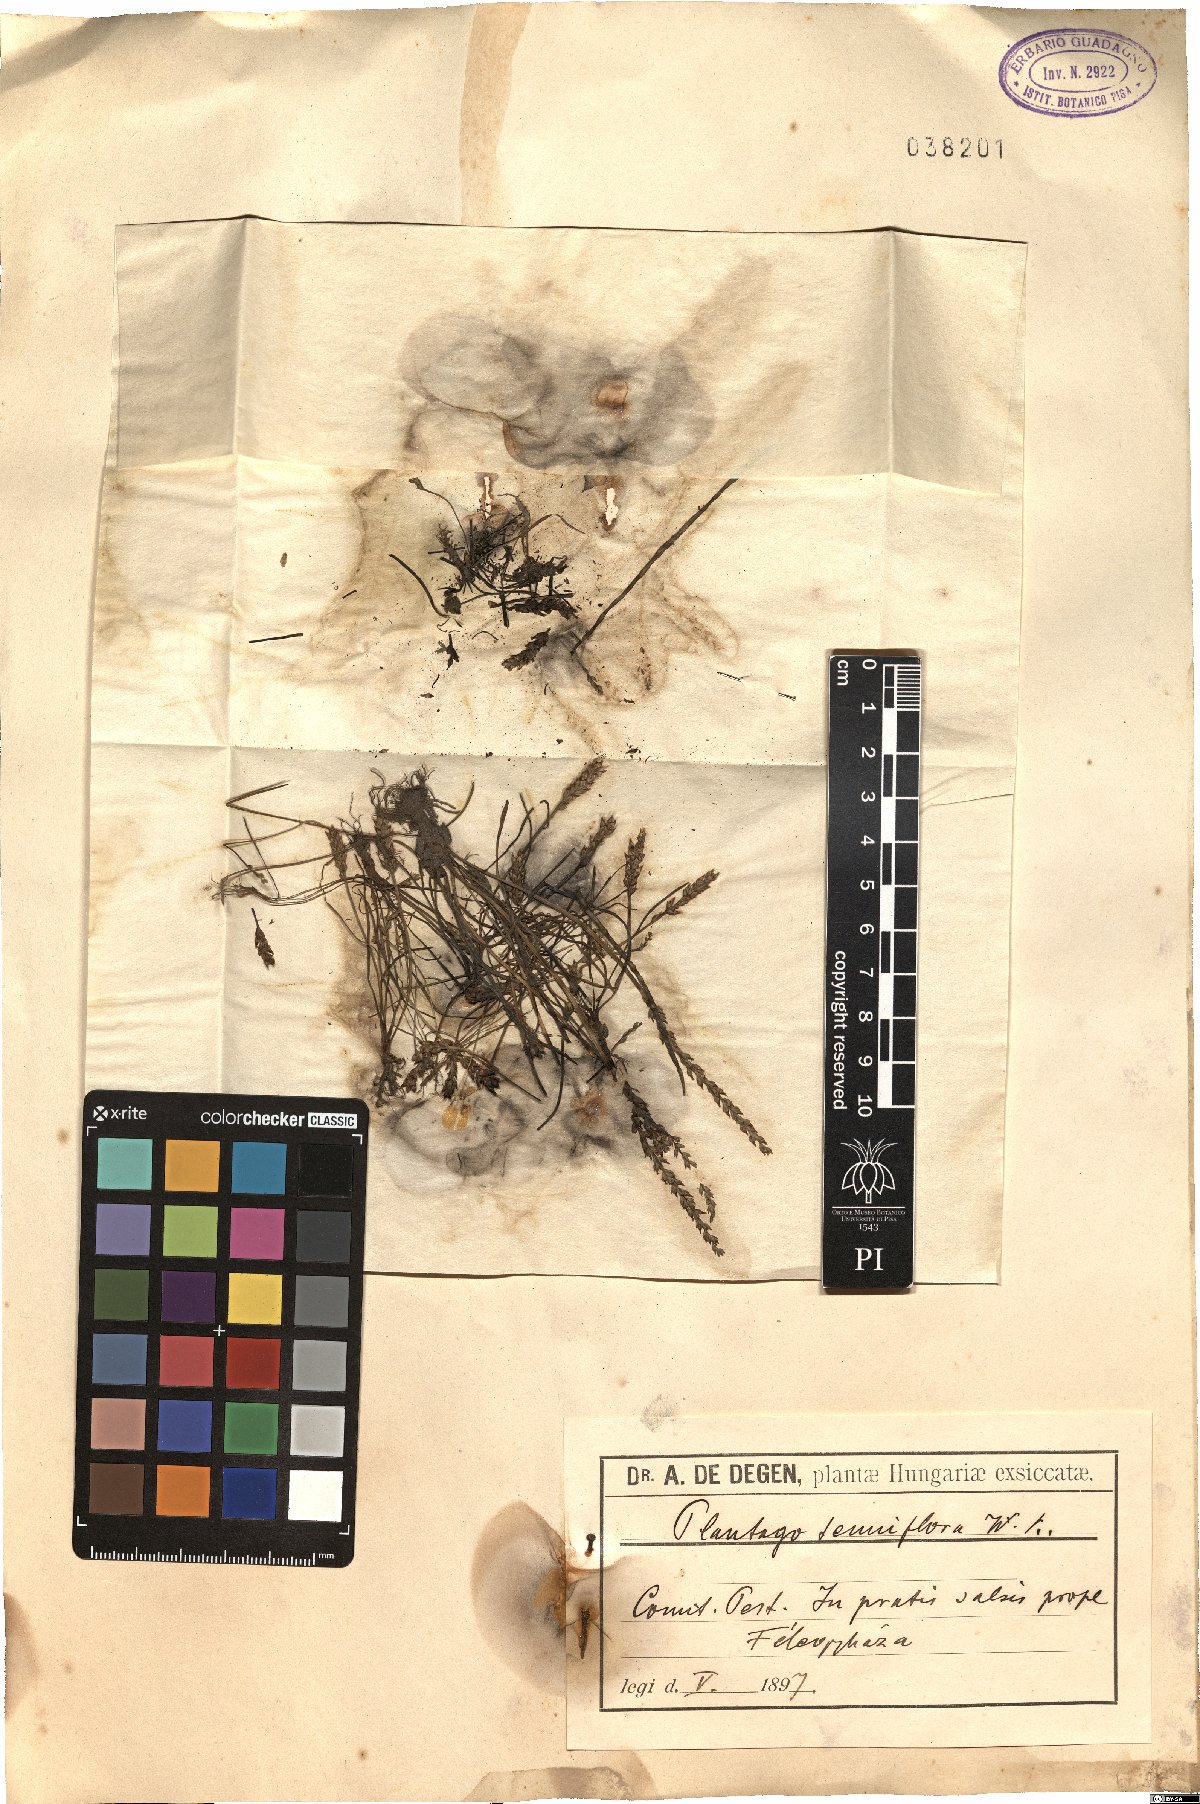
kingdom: Plantae
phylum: Tracheophyta
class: Magnoliopsida
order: Lamiales
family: Plantaginaceae
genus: Plantago
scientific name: Plantago tenuiflora
